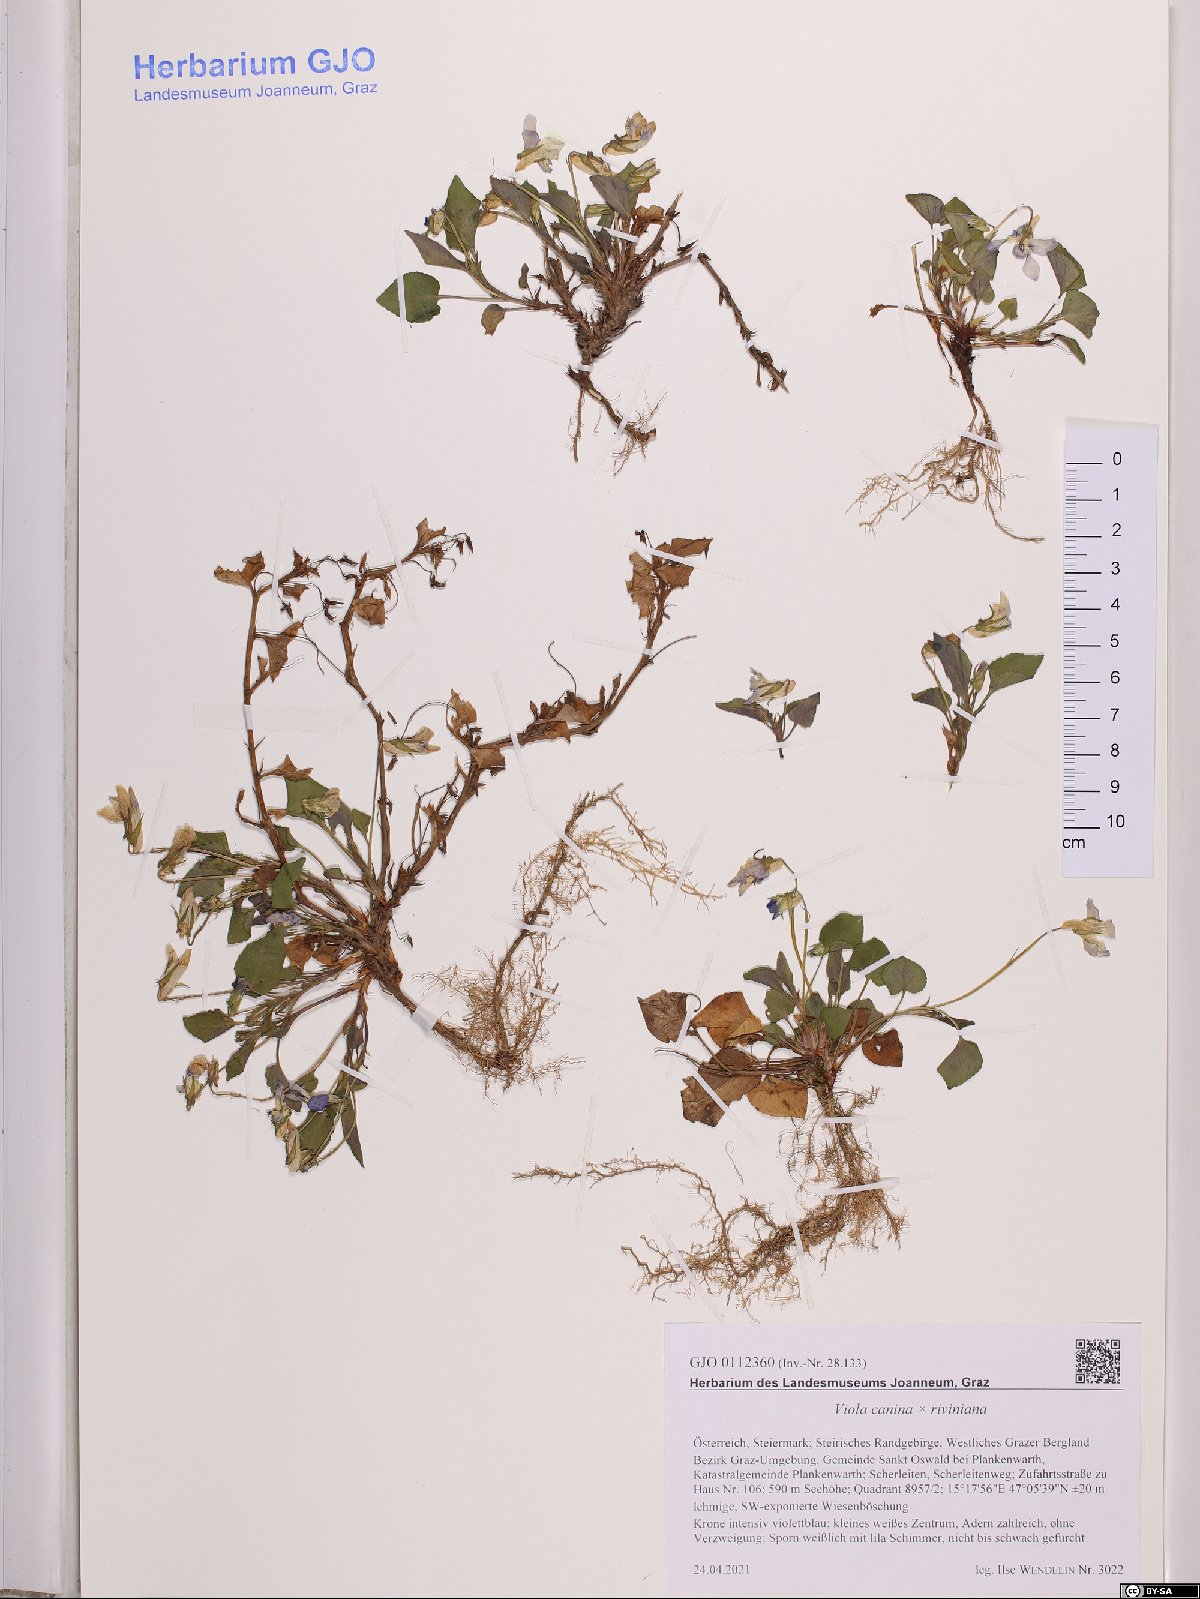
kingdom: Plantae
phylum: Tracheophyta
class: Magnoliopsida
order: Malpighiales
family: Violaceae
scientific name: Violaceae
